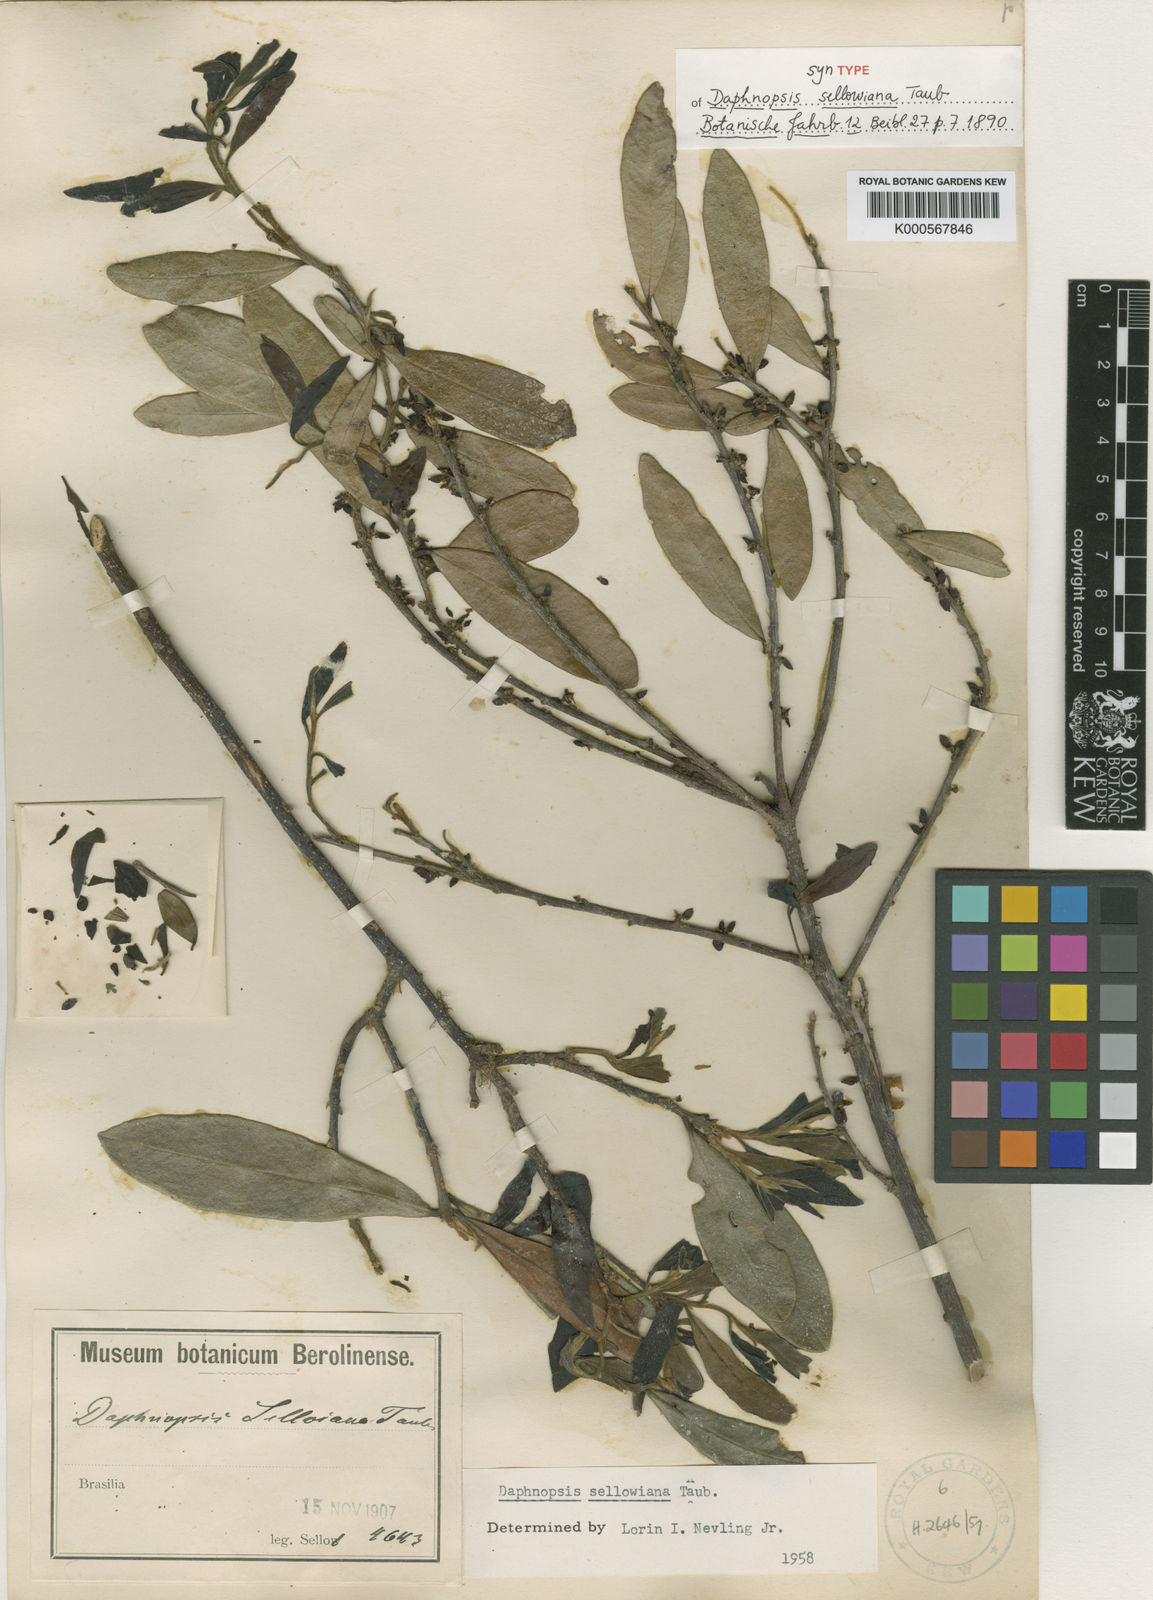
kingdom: Plantae
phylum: Tracheophyta
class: Magnoliopsida
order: Malvales
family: Thymelaeaceae
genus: Daphnopsis
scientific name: Daphnopsis sellowiana
